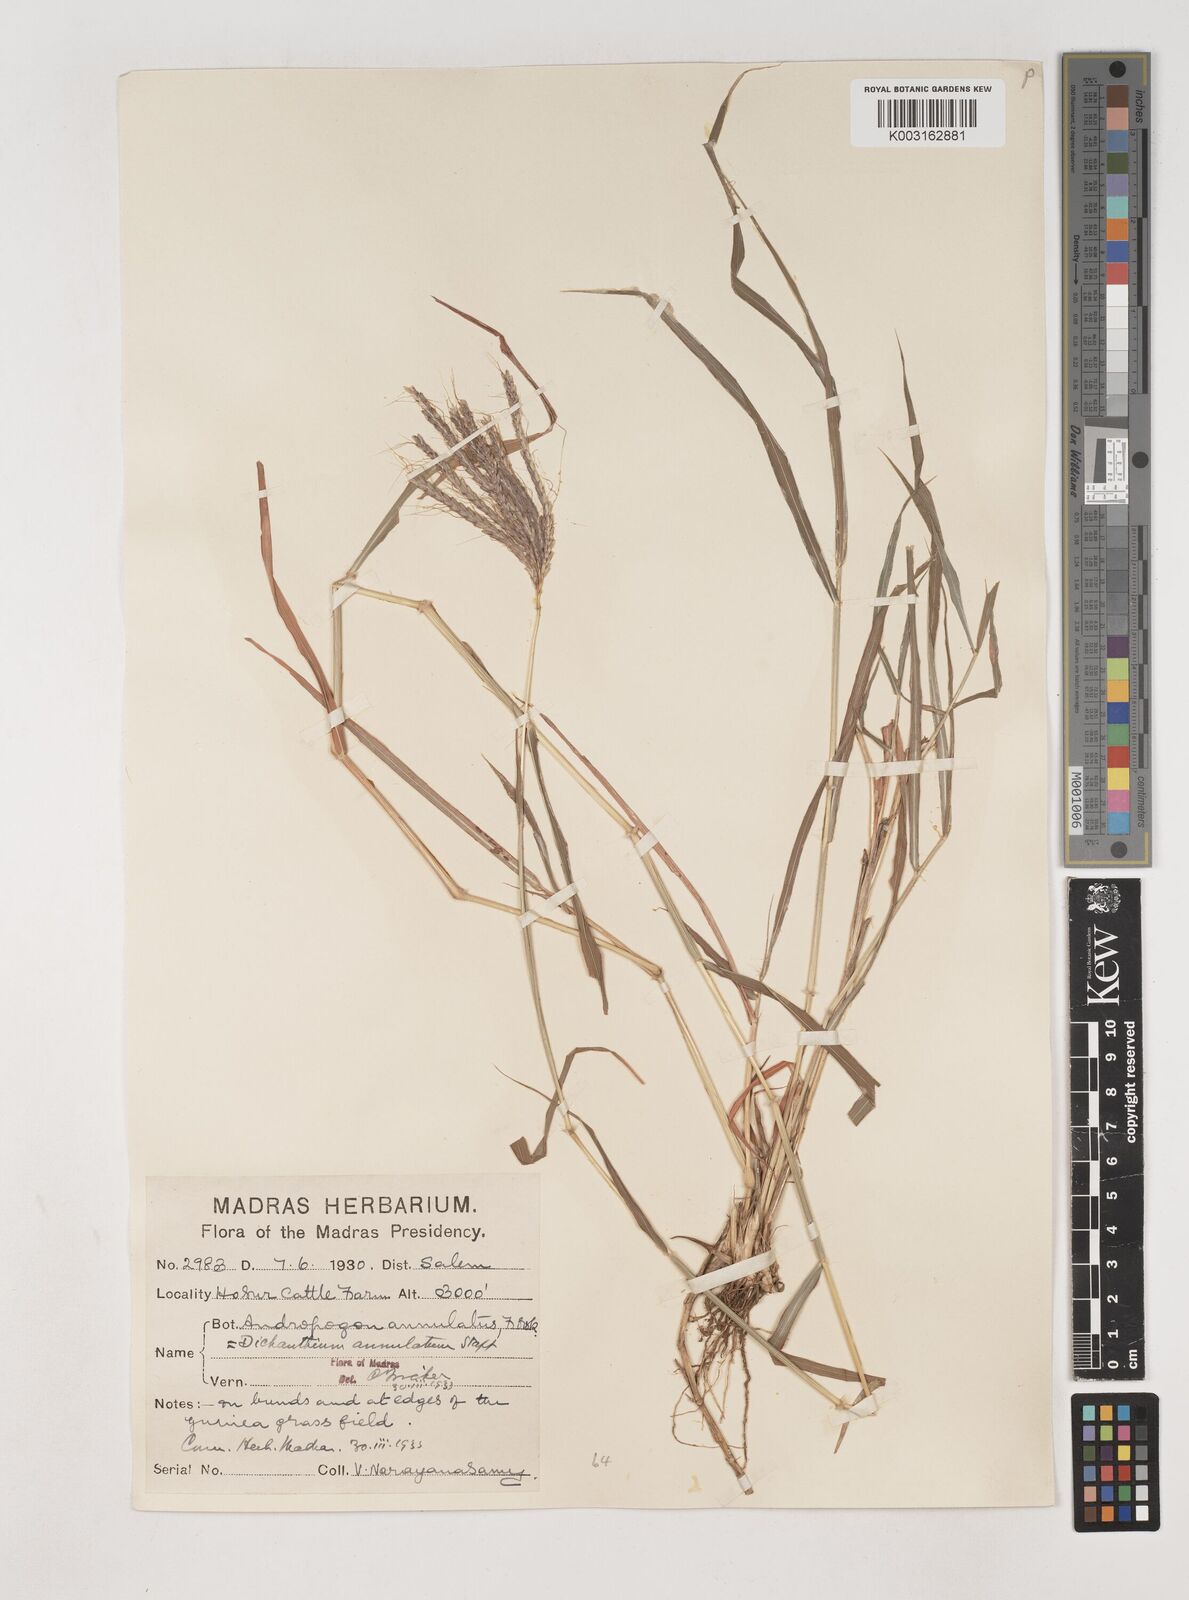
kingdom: Plantae
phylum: Tracheophyta
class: Liliopsida
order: Poales
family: Poaceae
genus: Dichanthium
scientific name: Dichanthium annulatum
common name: Kleberg's bluestem
